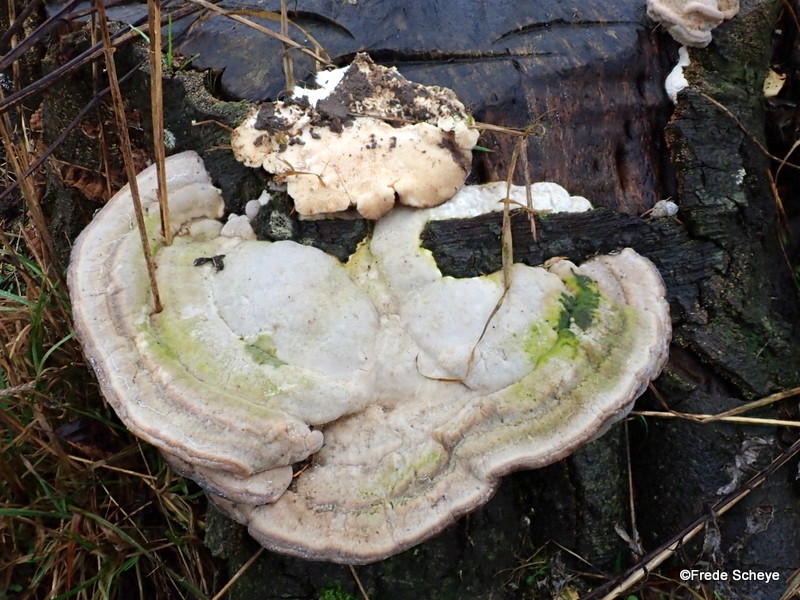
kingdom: Fungi
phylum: Basidiomycota
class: Agaricomycetes
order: Polyporales
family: Polyporaceae
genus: Trametes
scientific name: Trametes gibbosa
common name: puklet læderporesvamp
